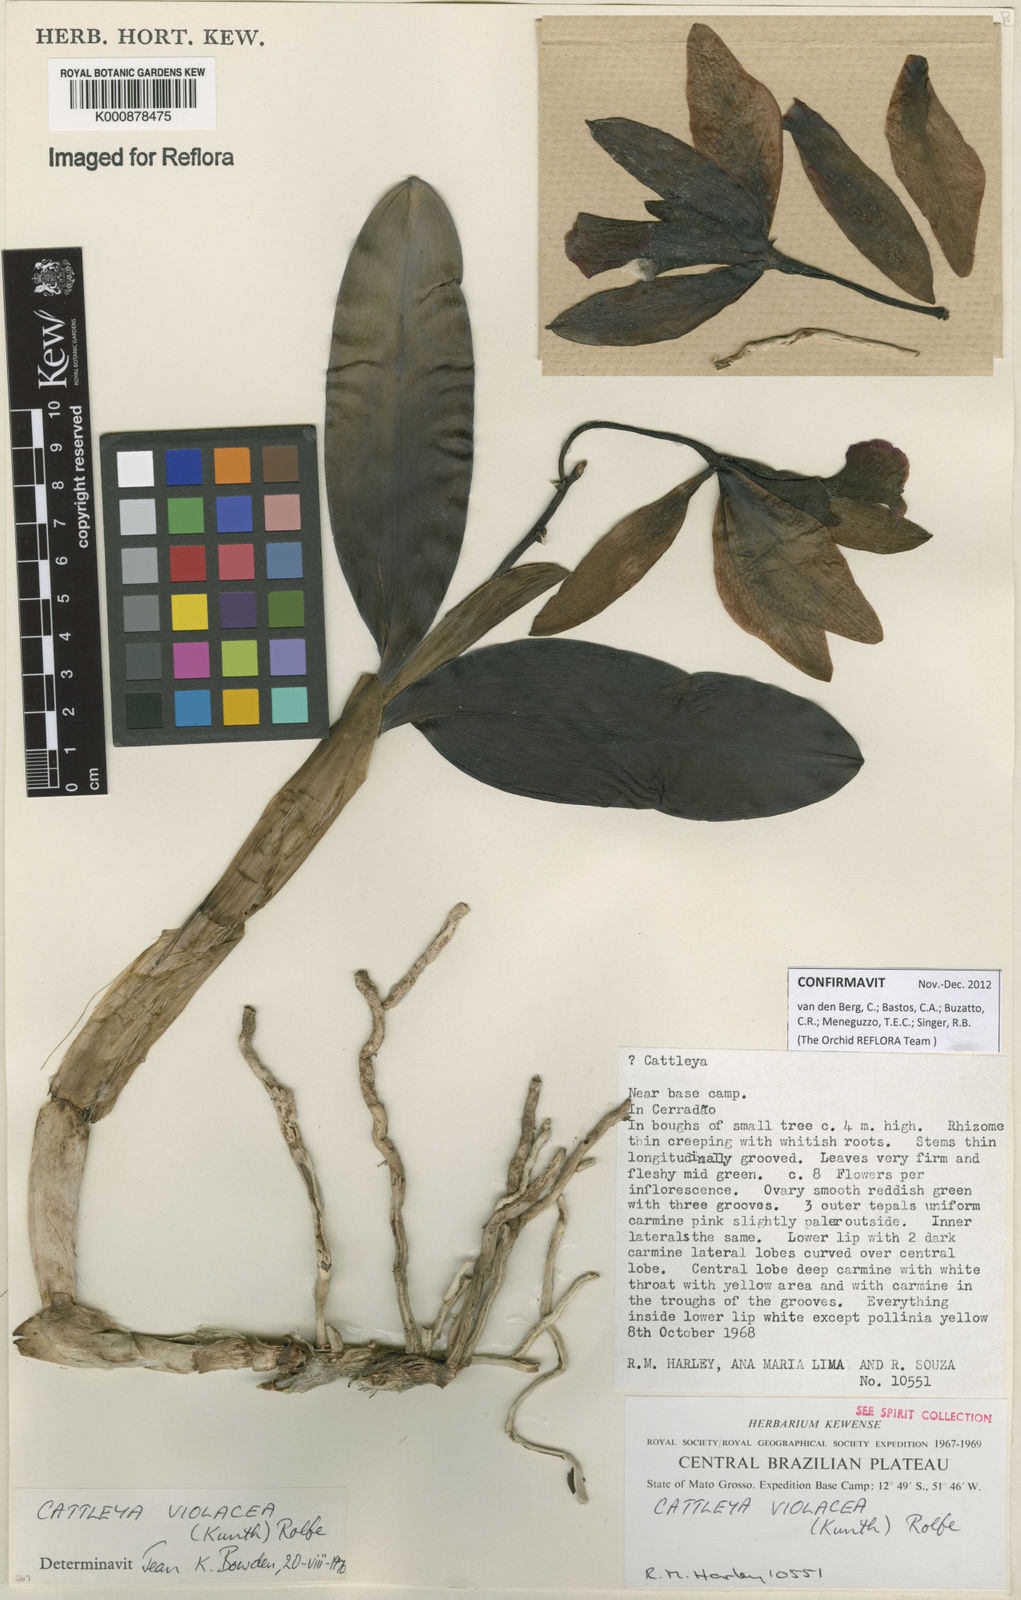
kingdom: Plantae
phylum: Tracheophyta
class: Liliopsida
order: Asparagales
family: Orchidaceae
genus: Cattleya
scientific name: Cattleya
